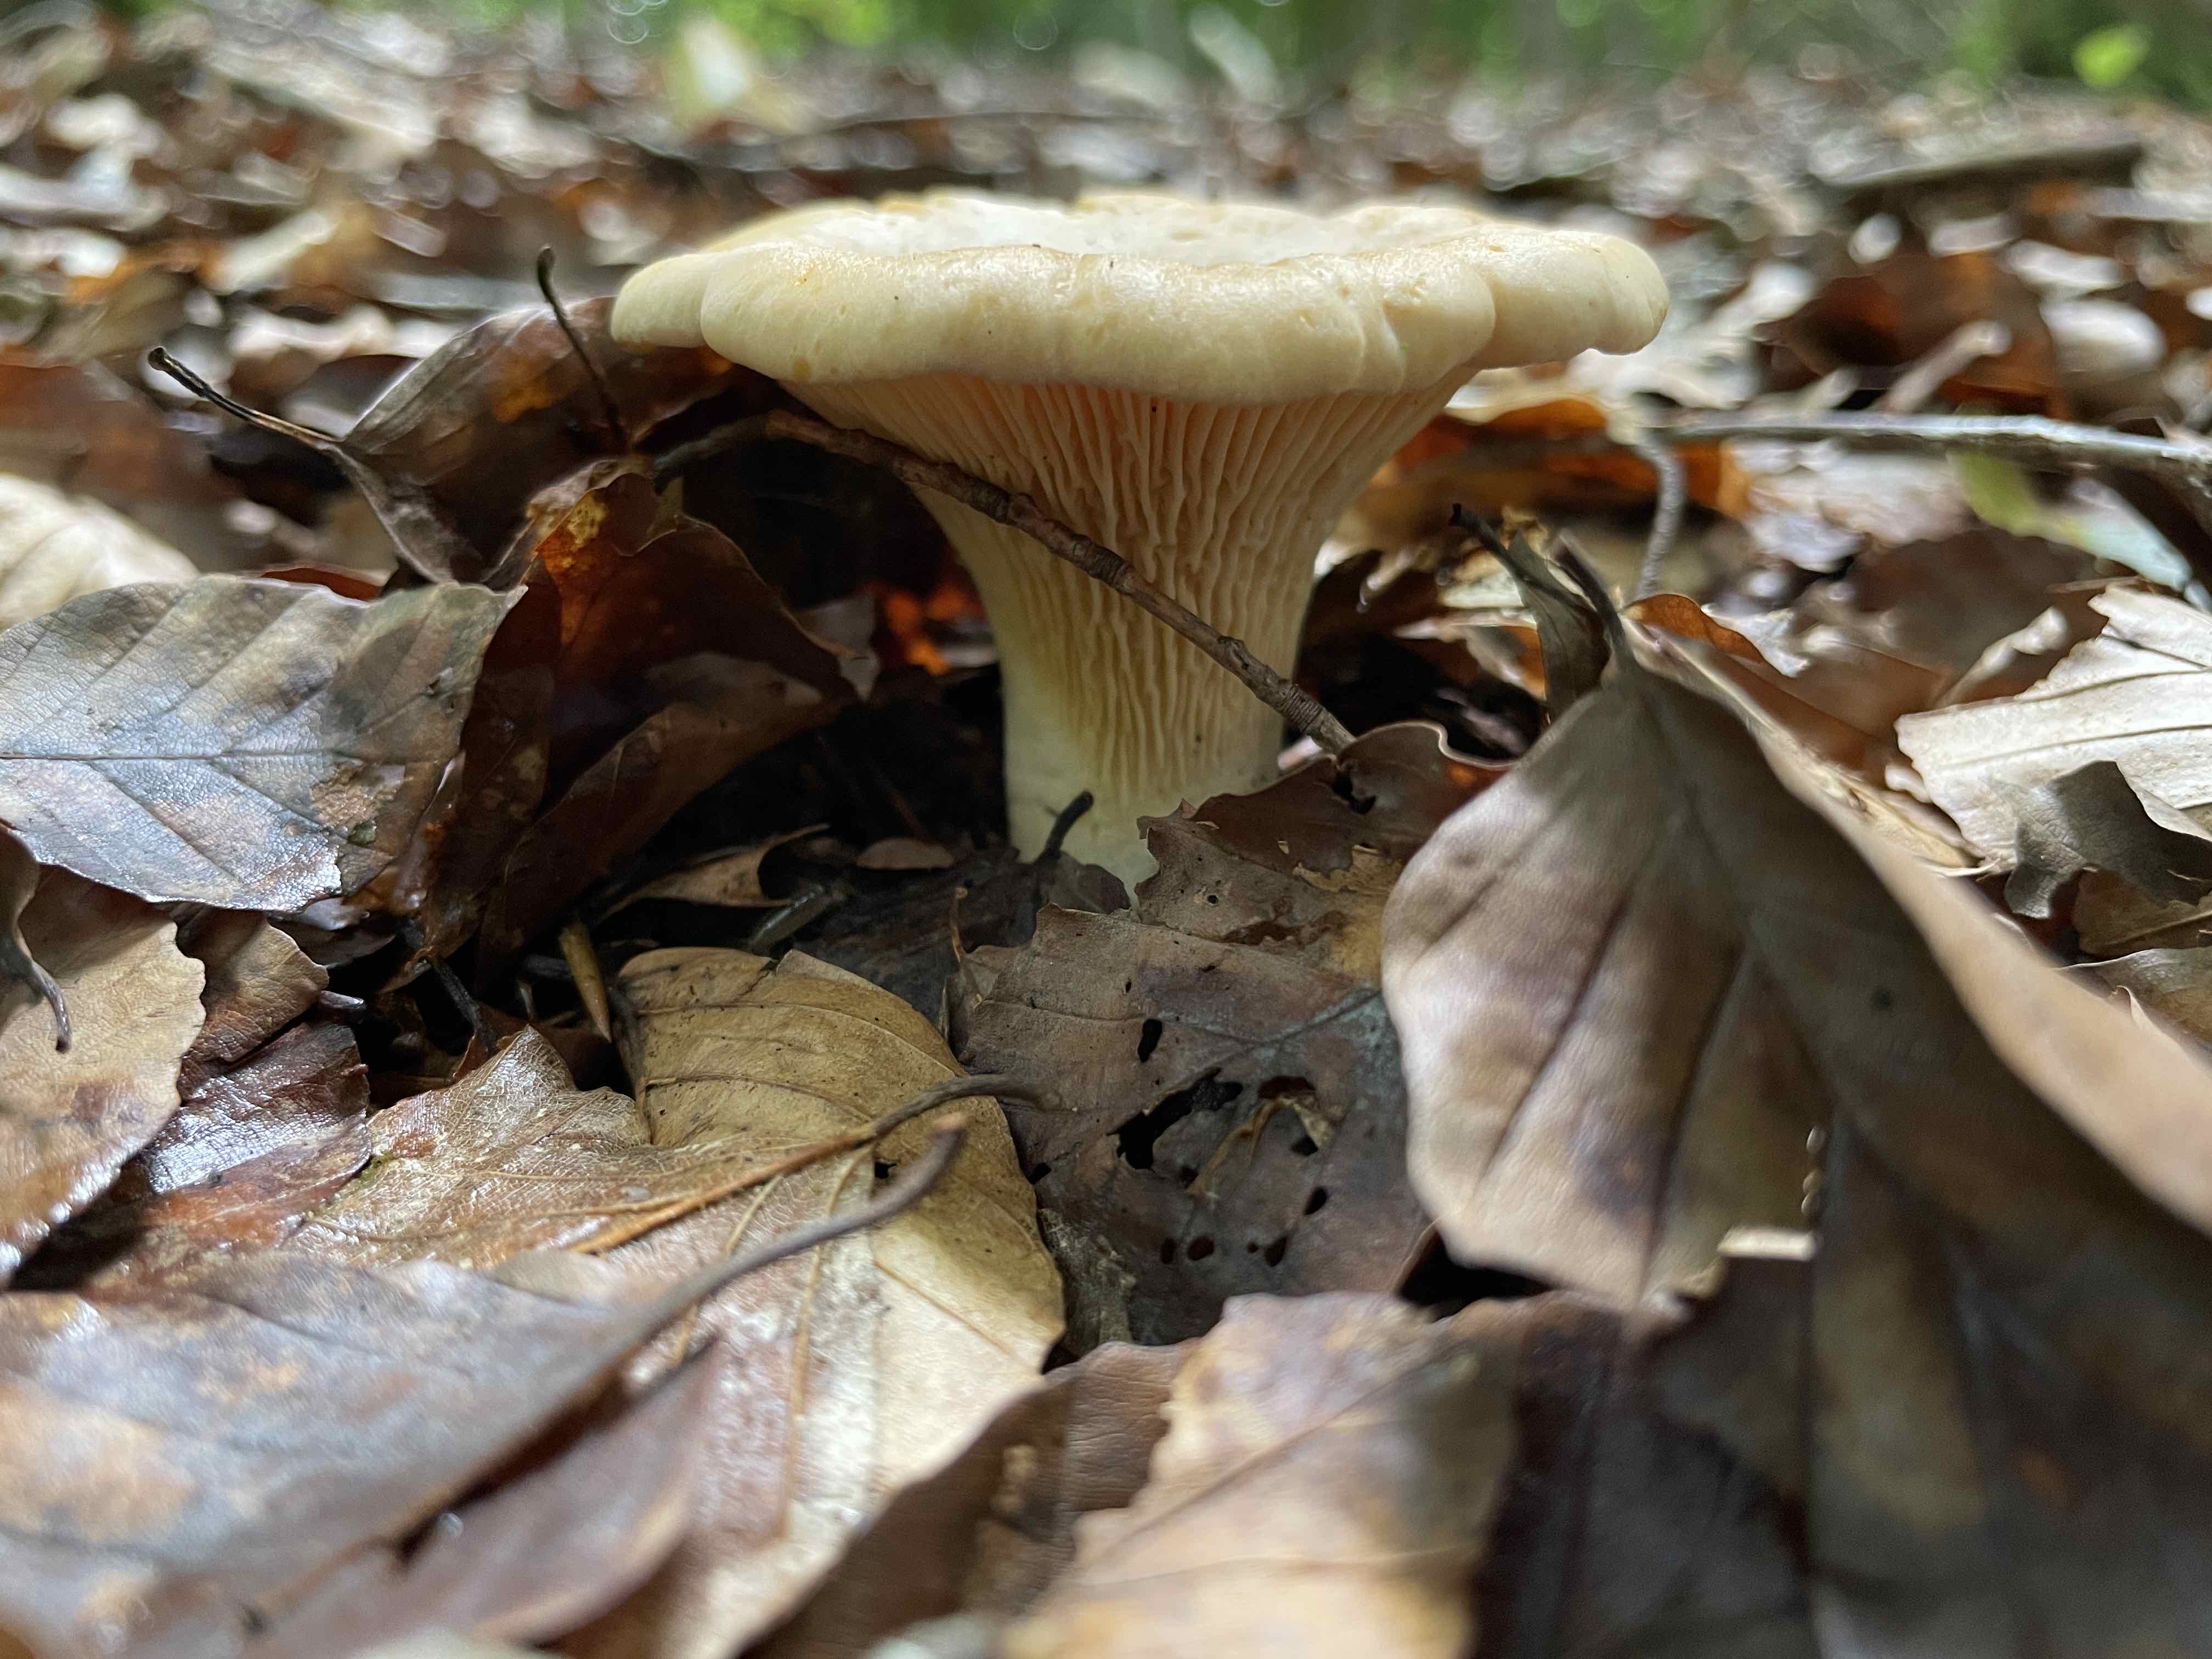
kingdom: Fungi
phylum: Basidiomycota
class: Agaricomycetes
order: Cantharellales
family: Hydnaceae
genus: Cantharellus
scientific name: Cantharellus pallens
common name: bleg kantarel
